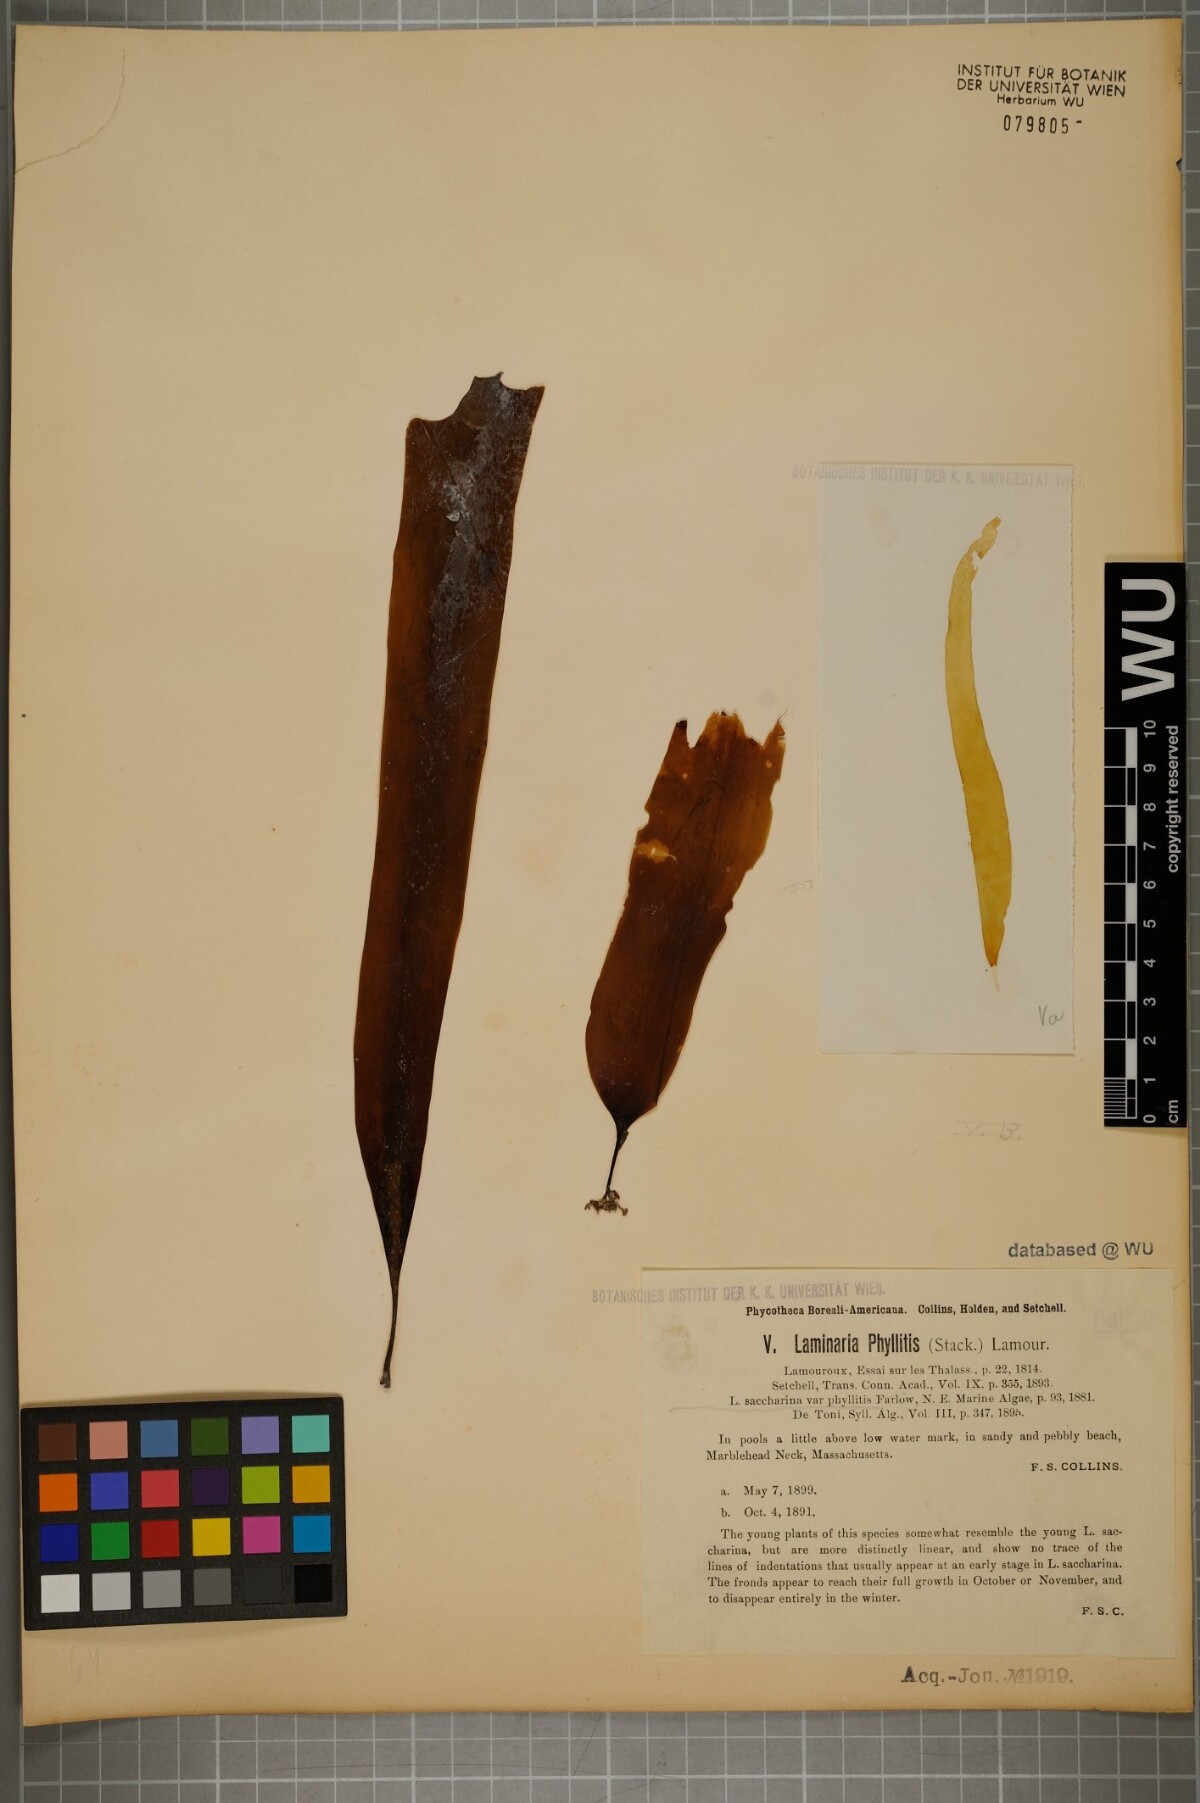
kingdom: Chromista
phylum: Ochrophyta
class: Phaeophyceae
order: Laminariales
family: Laminariaceae
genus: Saccharina
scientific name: Saccharina latissima
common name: Poor man's weather glass
